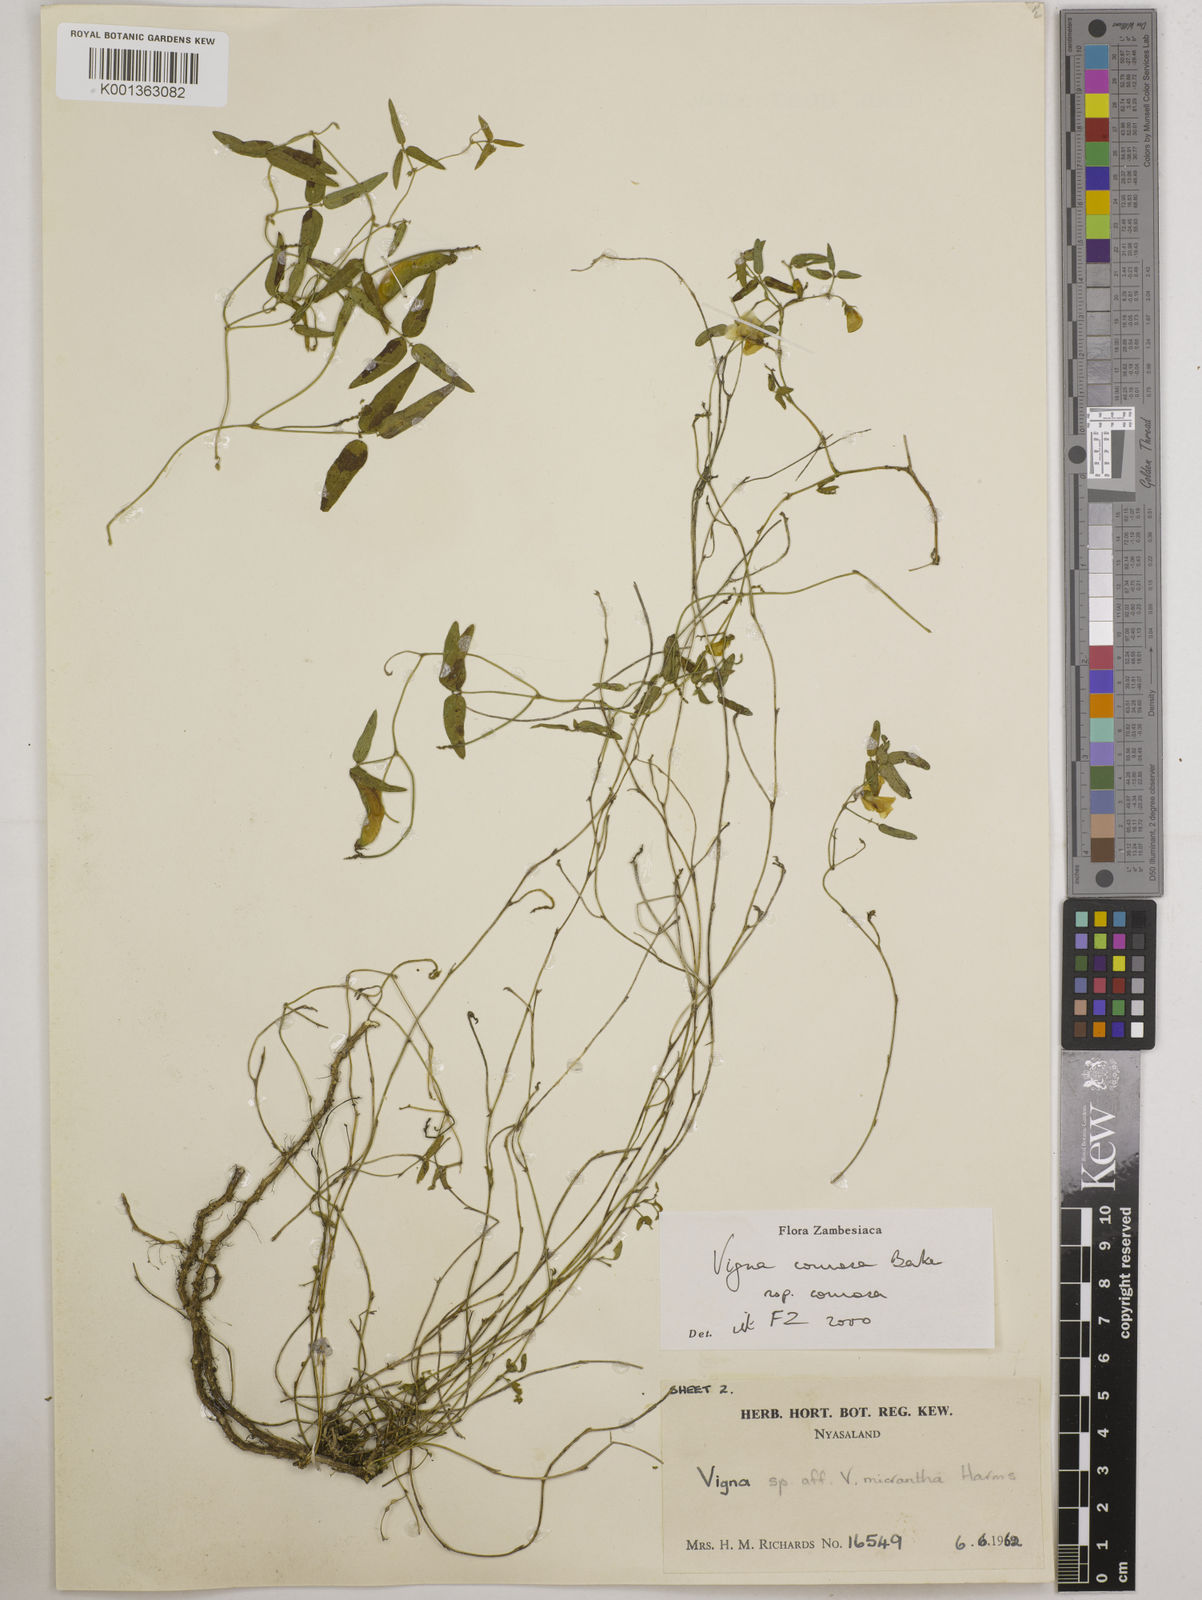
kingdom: Plantae
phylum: Tracheophyta
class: Magnoliopsida
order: Fabales
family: Fabaceae
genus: Vigna
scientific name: Vigna comosa
